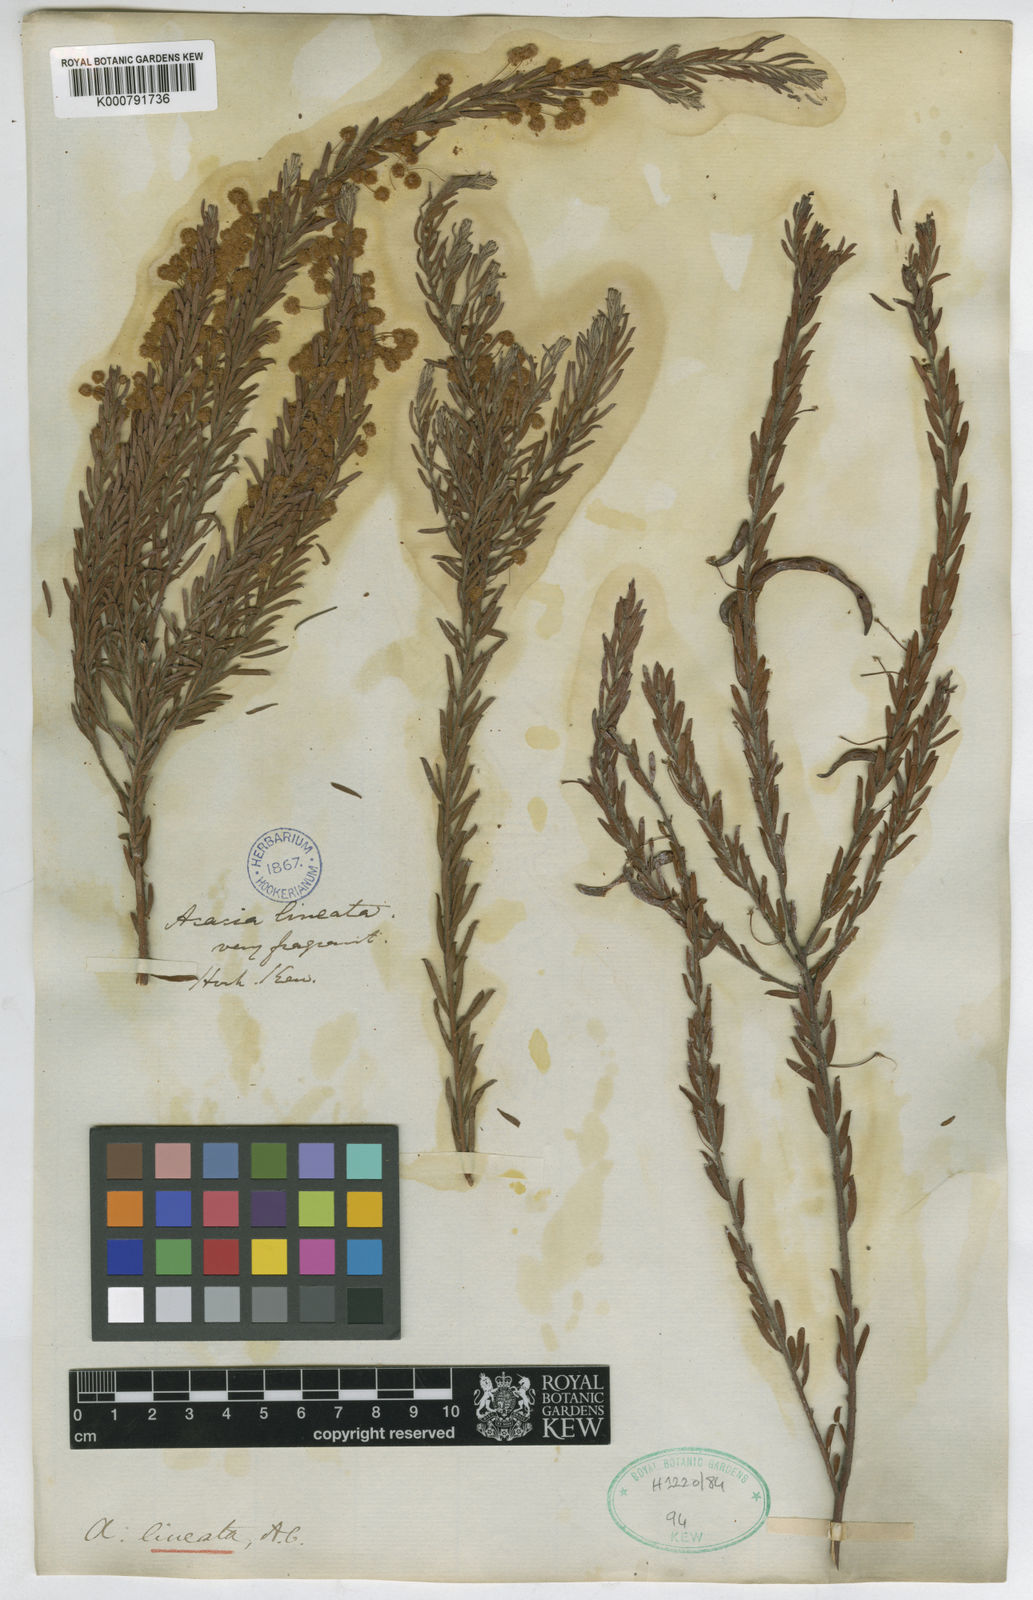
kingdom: Plantae
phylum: Tracheophyta
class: Magnoliopsida
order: Fabales
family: Fabaceae
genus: Acacia
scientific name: Acacia lineata
